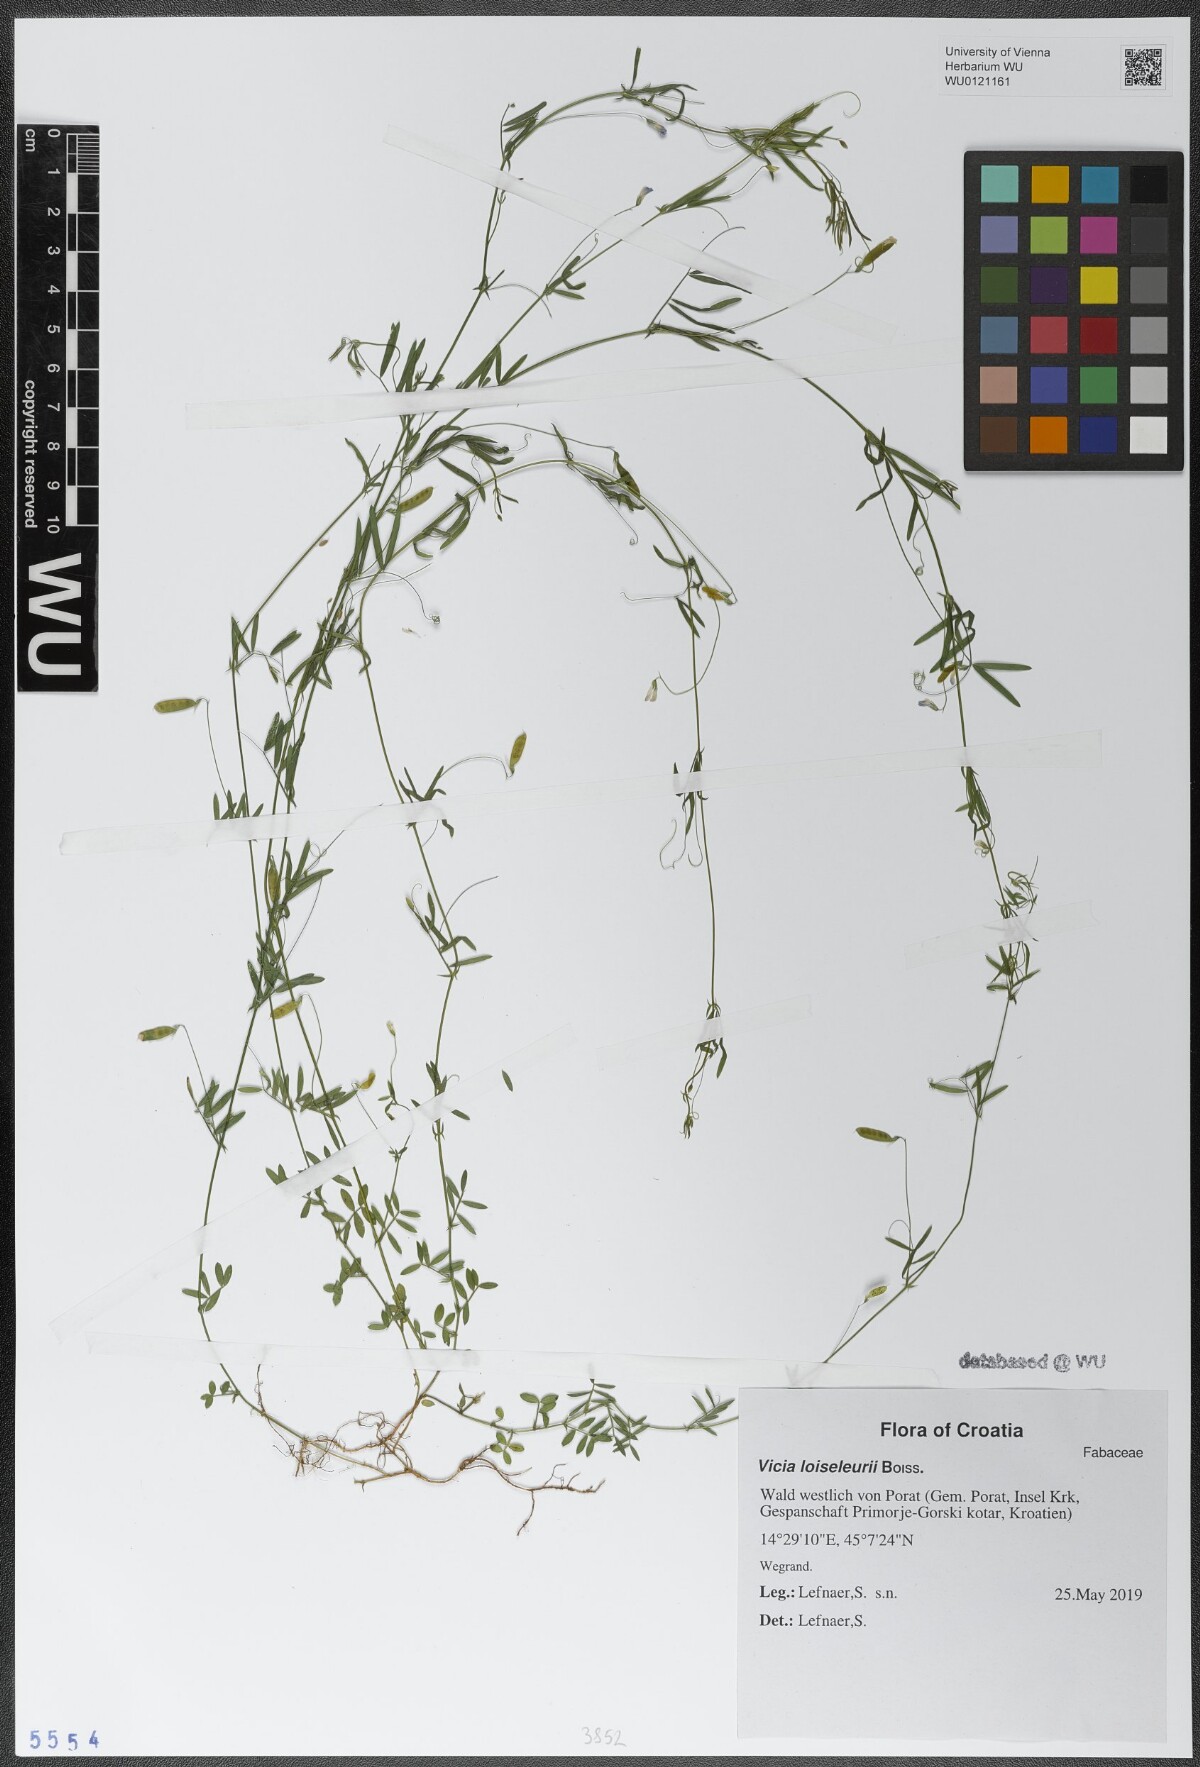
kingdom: Plantae
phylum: Tracheophyta
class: Magnoliopsida
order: Fabales
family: Fabaceae
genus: Vicia
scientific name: Vicia loiseleurii
